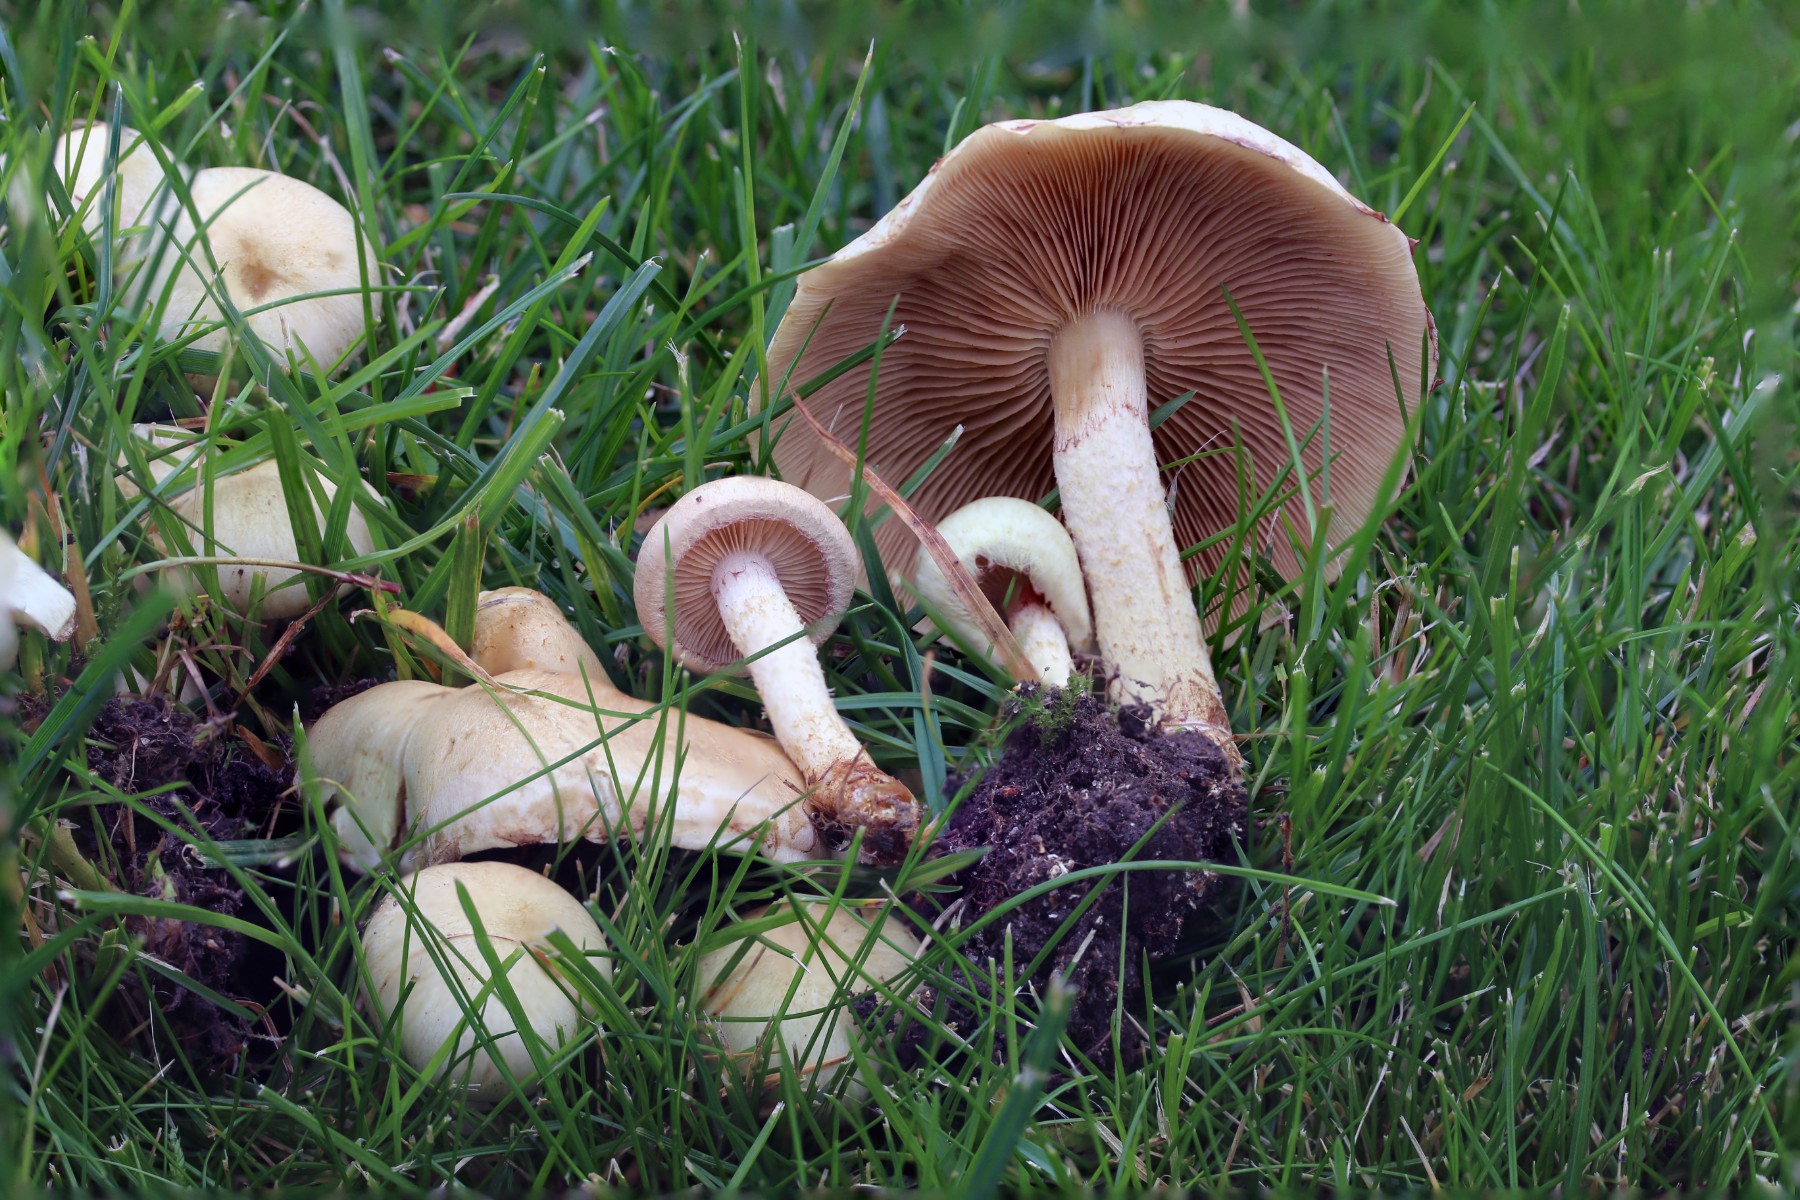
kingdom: Fungi
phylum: Basidiomycota
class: Agaricomycetes
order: Agaricales
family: Strophariaceae
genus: Pholiota
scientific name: Pholiota gummosa
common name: grøngul skælhat
